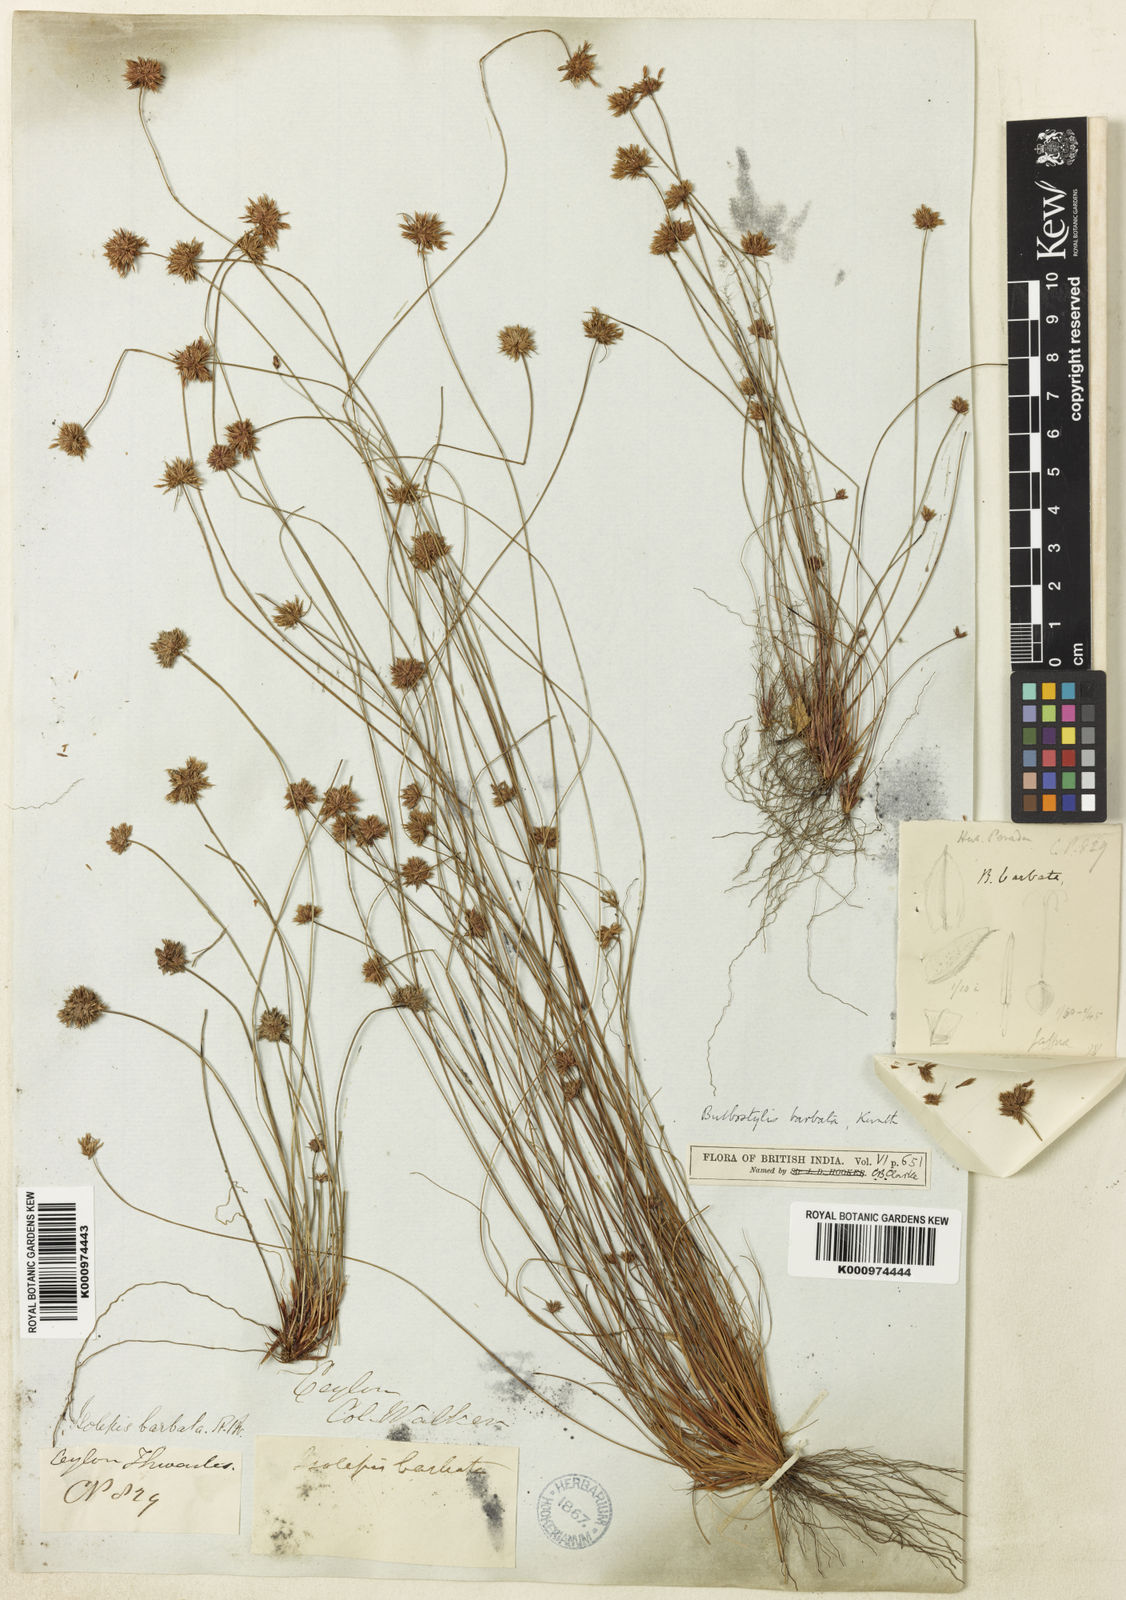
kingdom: Plantae
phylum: Tracheophyta
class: Liliopsida
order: Poales
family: Cyperaceae
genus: Bulbostylis
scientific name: Bulbostylis barbata
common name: Watergrass
